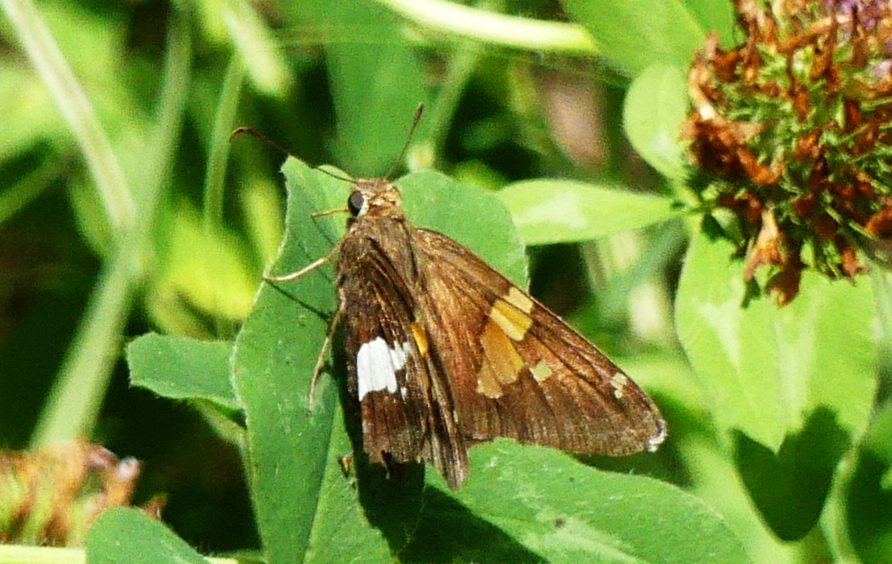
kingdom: Animalia
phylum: Arthropoda
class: Insecta
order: Lepidoptera
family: Hesperiidae
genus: Epargyreus
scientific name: Epargyreus clarus
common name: Silver-spotted Skipper
